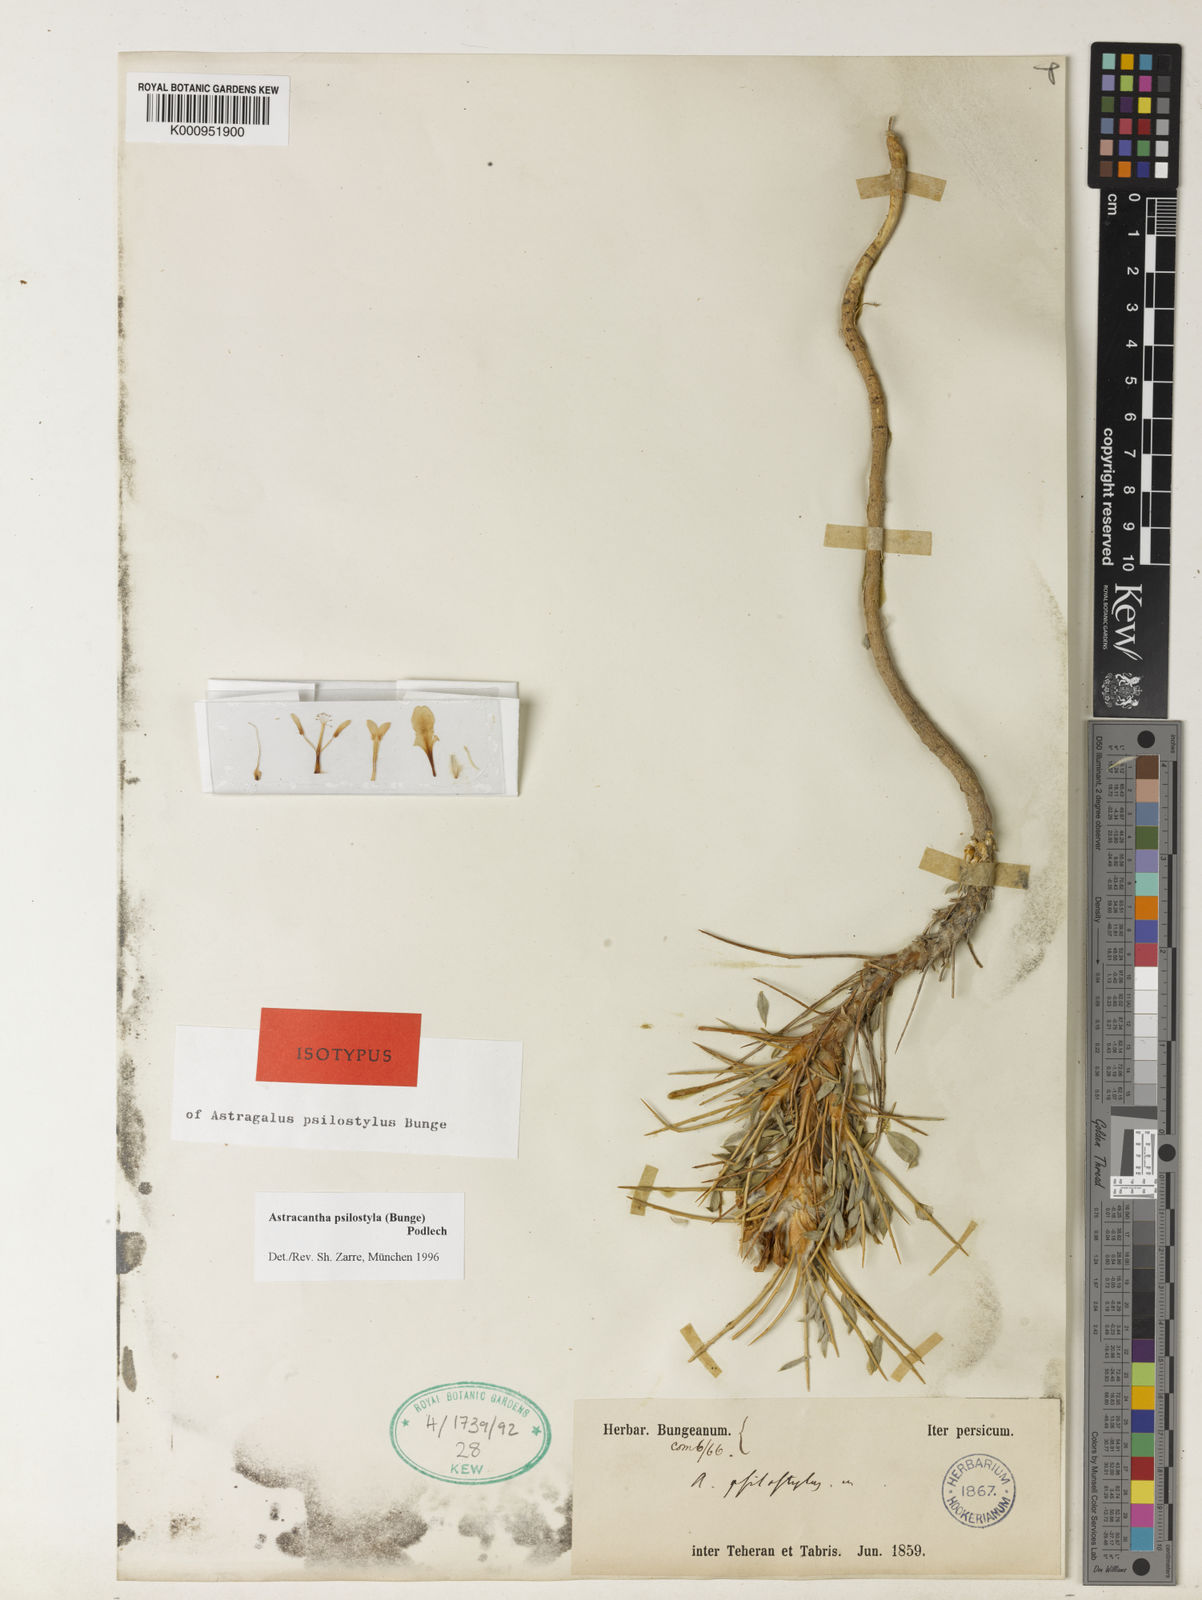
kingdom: Plantae
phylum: Tracheophyta
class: Magnoliopsida
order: Fabales
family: Fabaceae
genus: Astragalus
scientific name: Astragalus psilostylus
